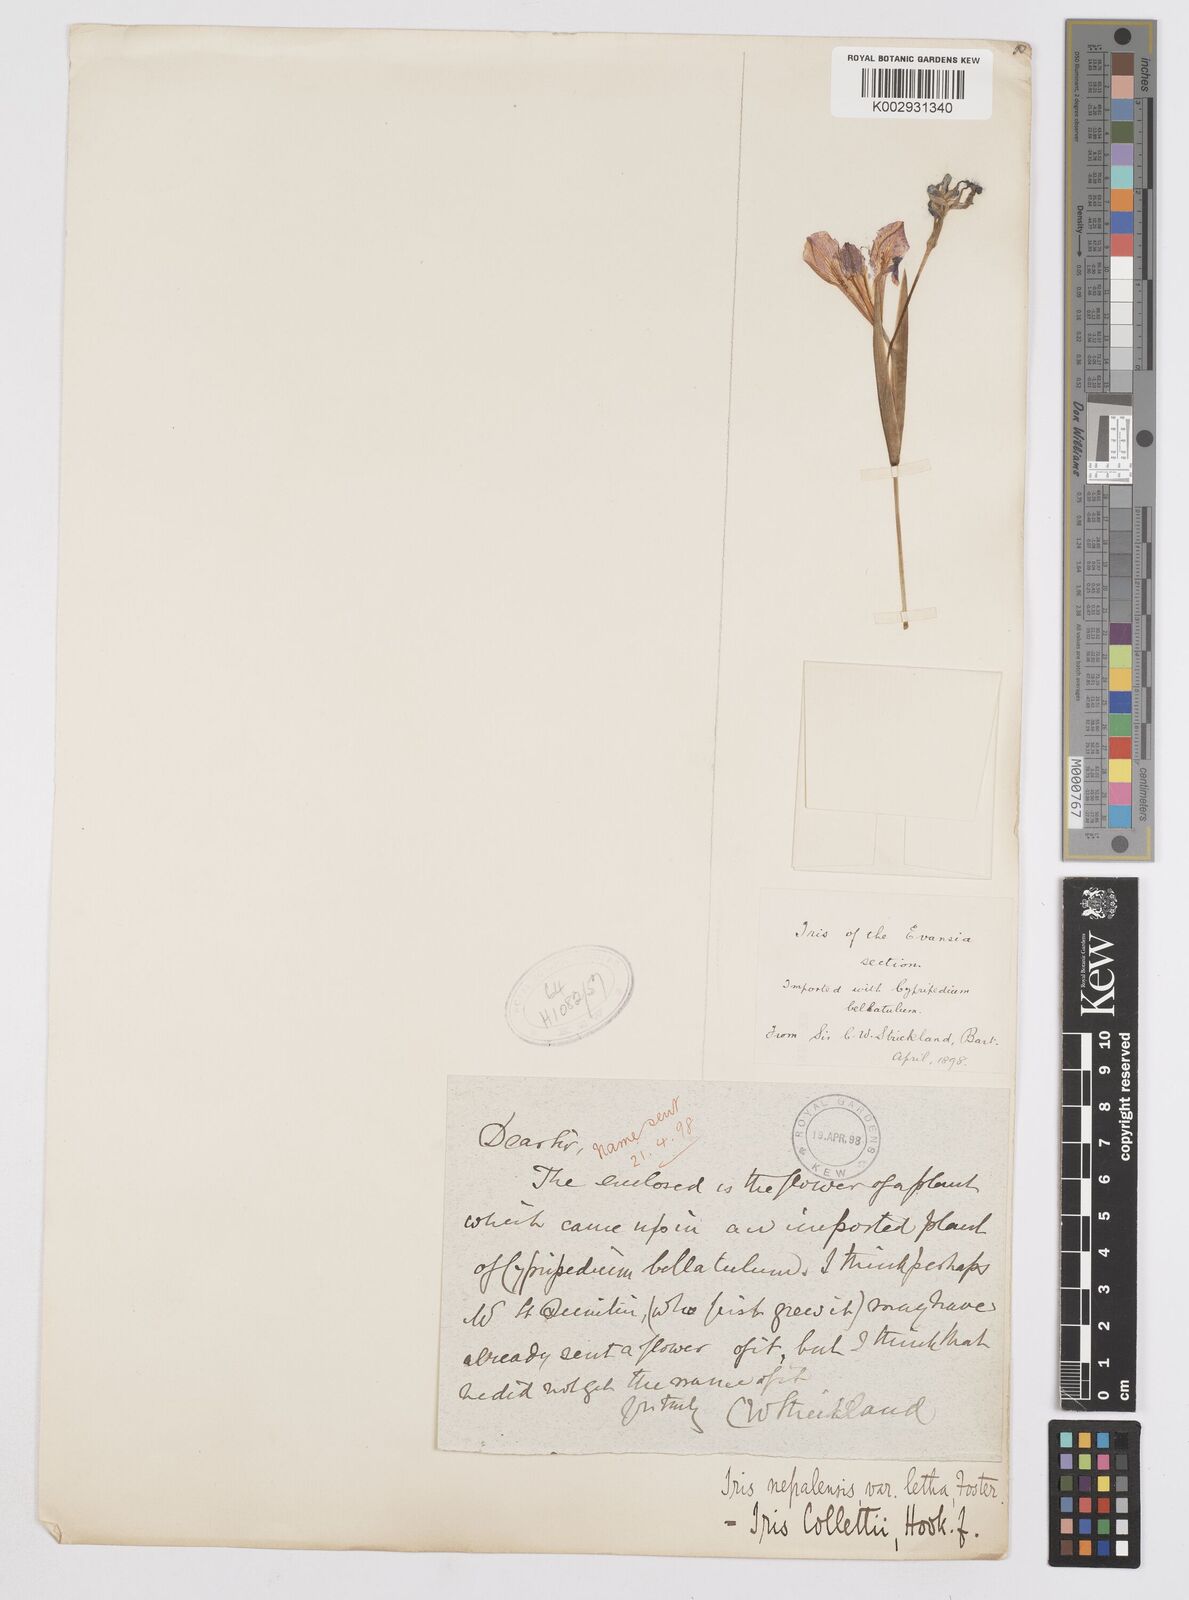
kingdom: Plantae
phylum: Tracheophyta
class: Liliopsida
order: Asparagales
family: Iridaceae
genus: Iris
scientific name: Iris collettii
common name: Plateau iris
